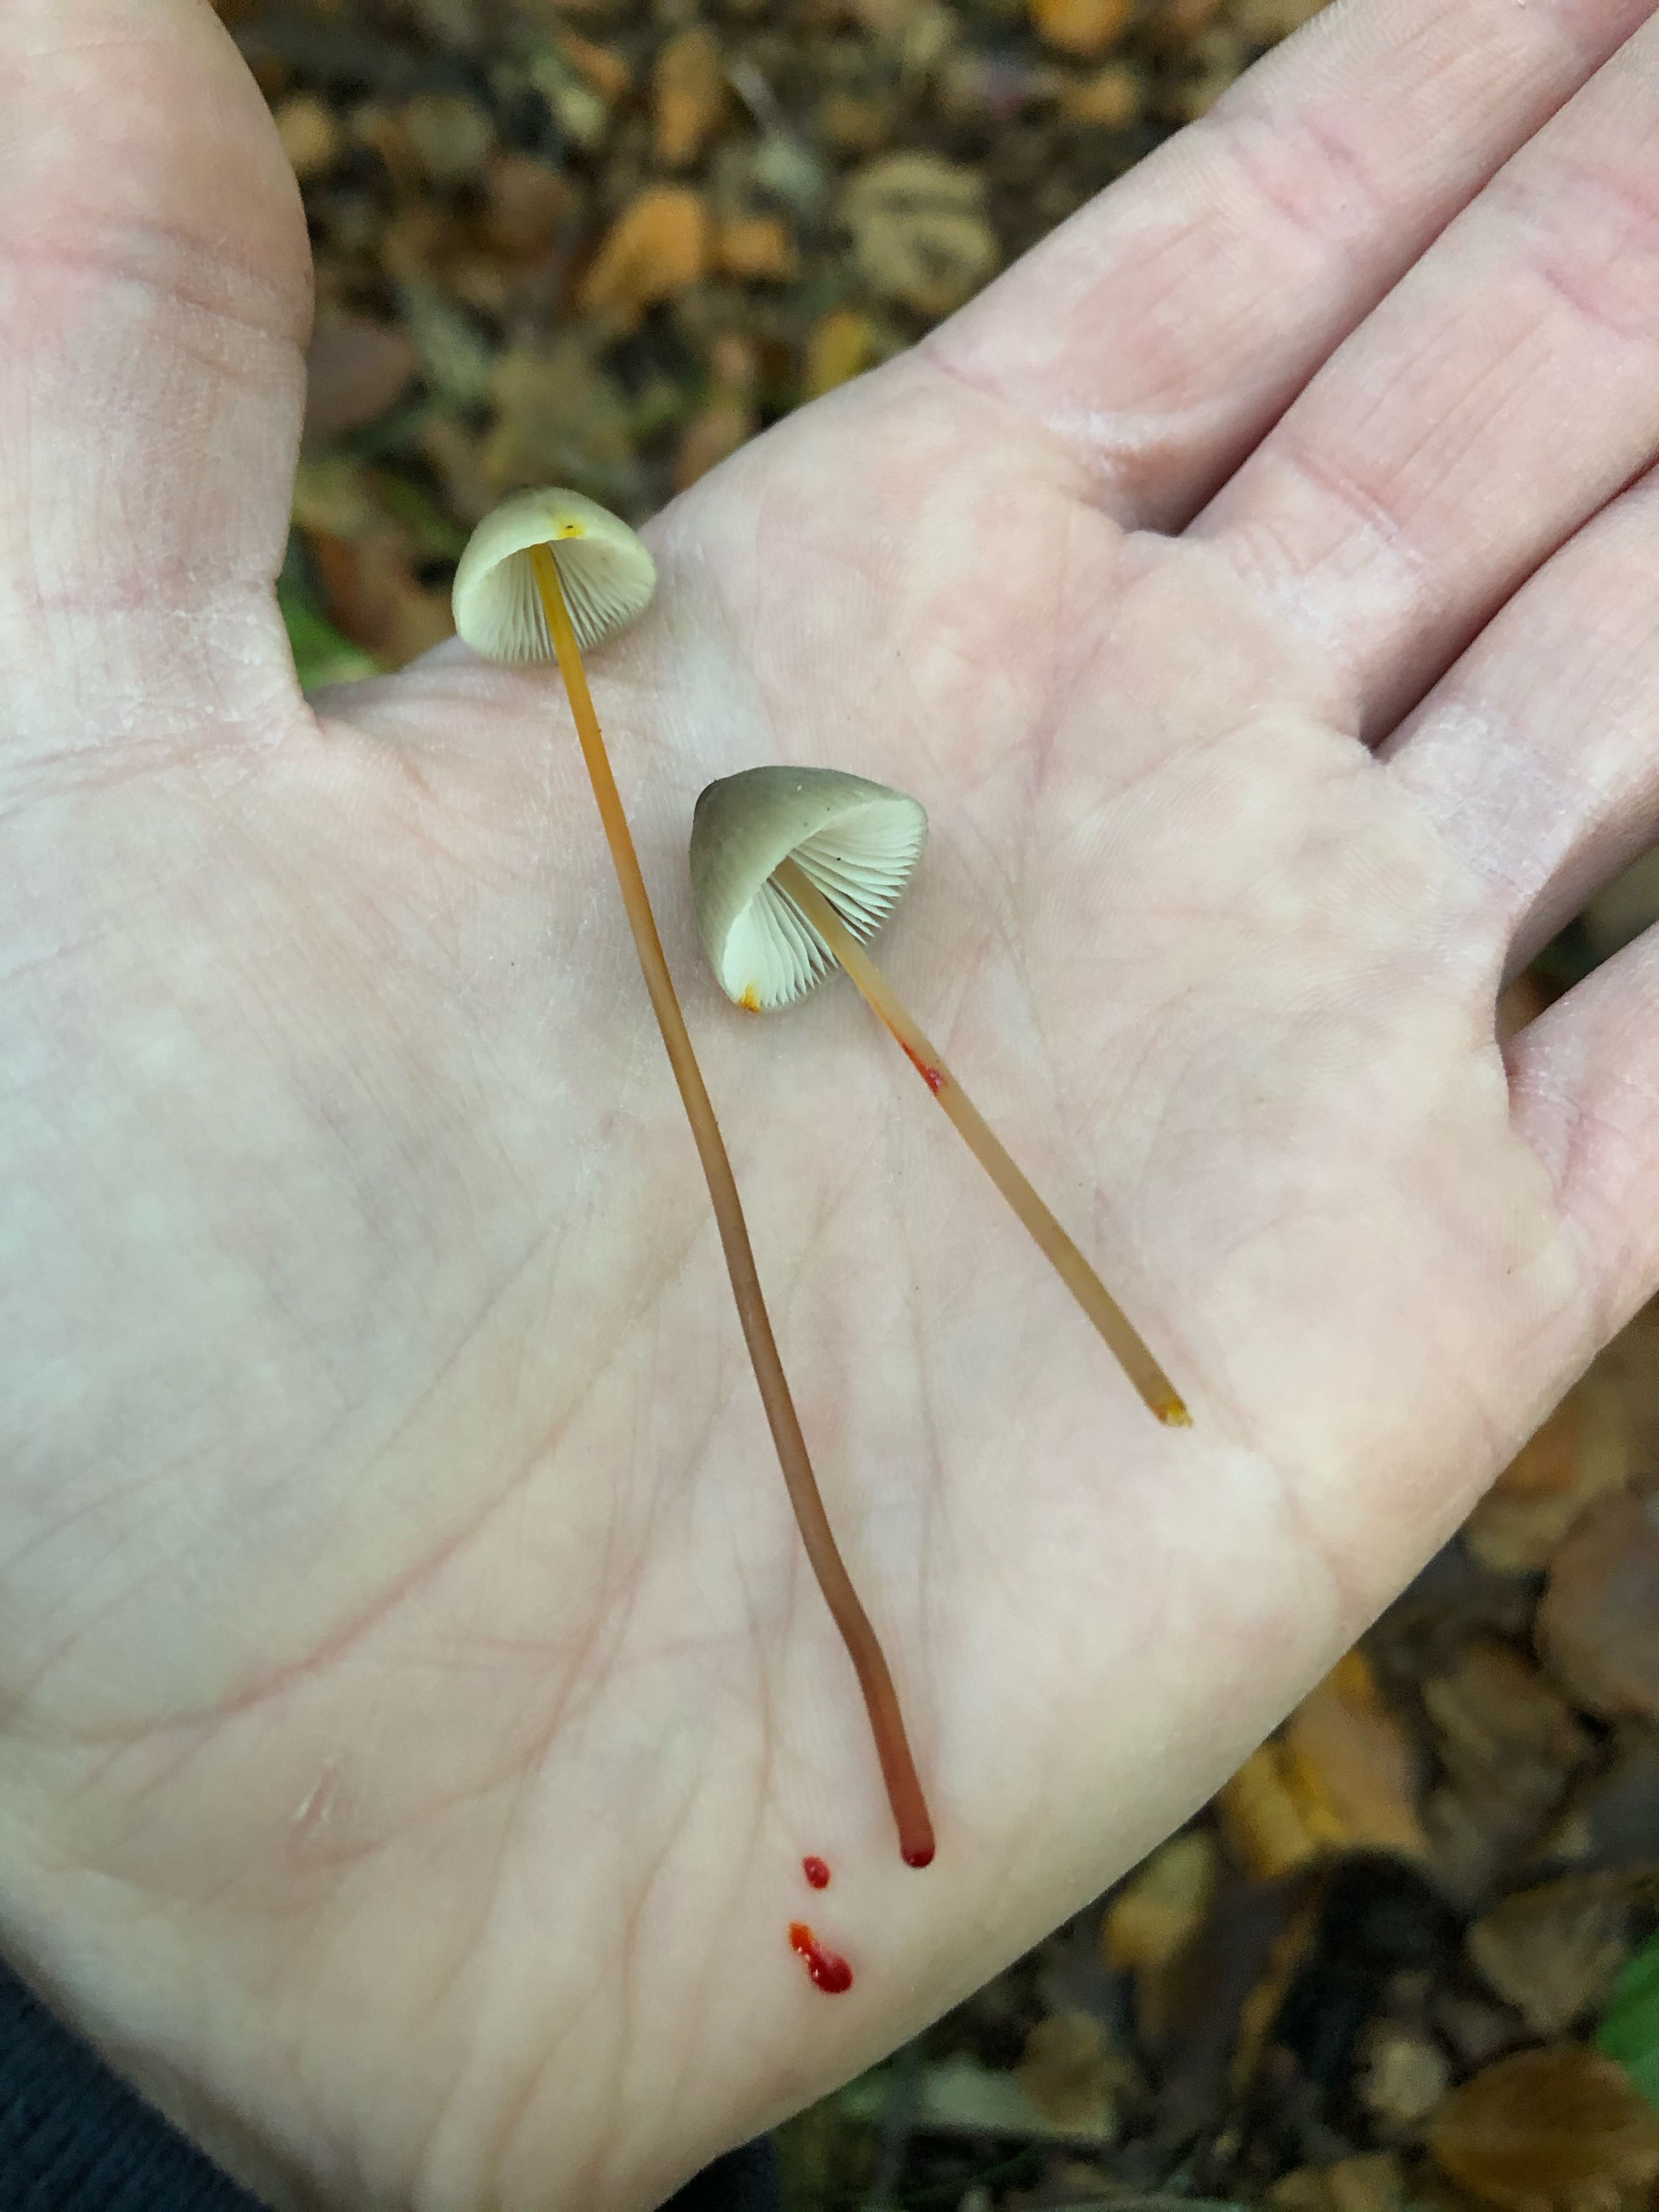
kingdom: Fungi
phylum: Basidiomycota
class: Agaricomycetes
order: Agaricales
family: Mycenaceae
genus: Mycena
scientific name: Mycena crocata
